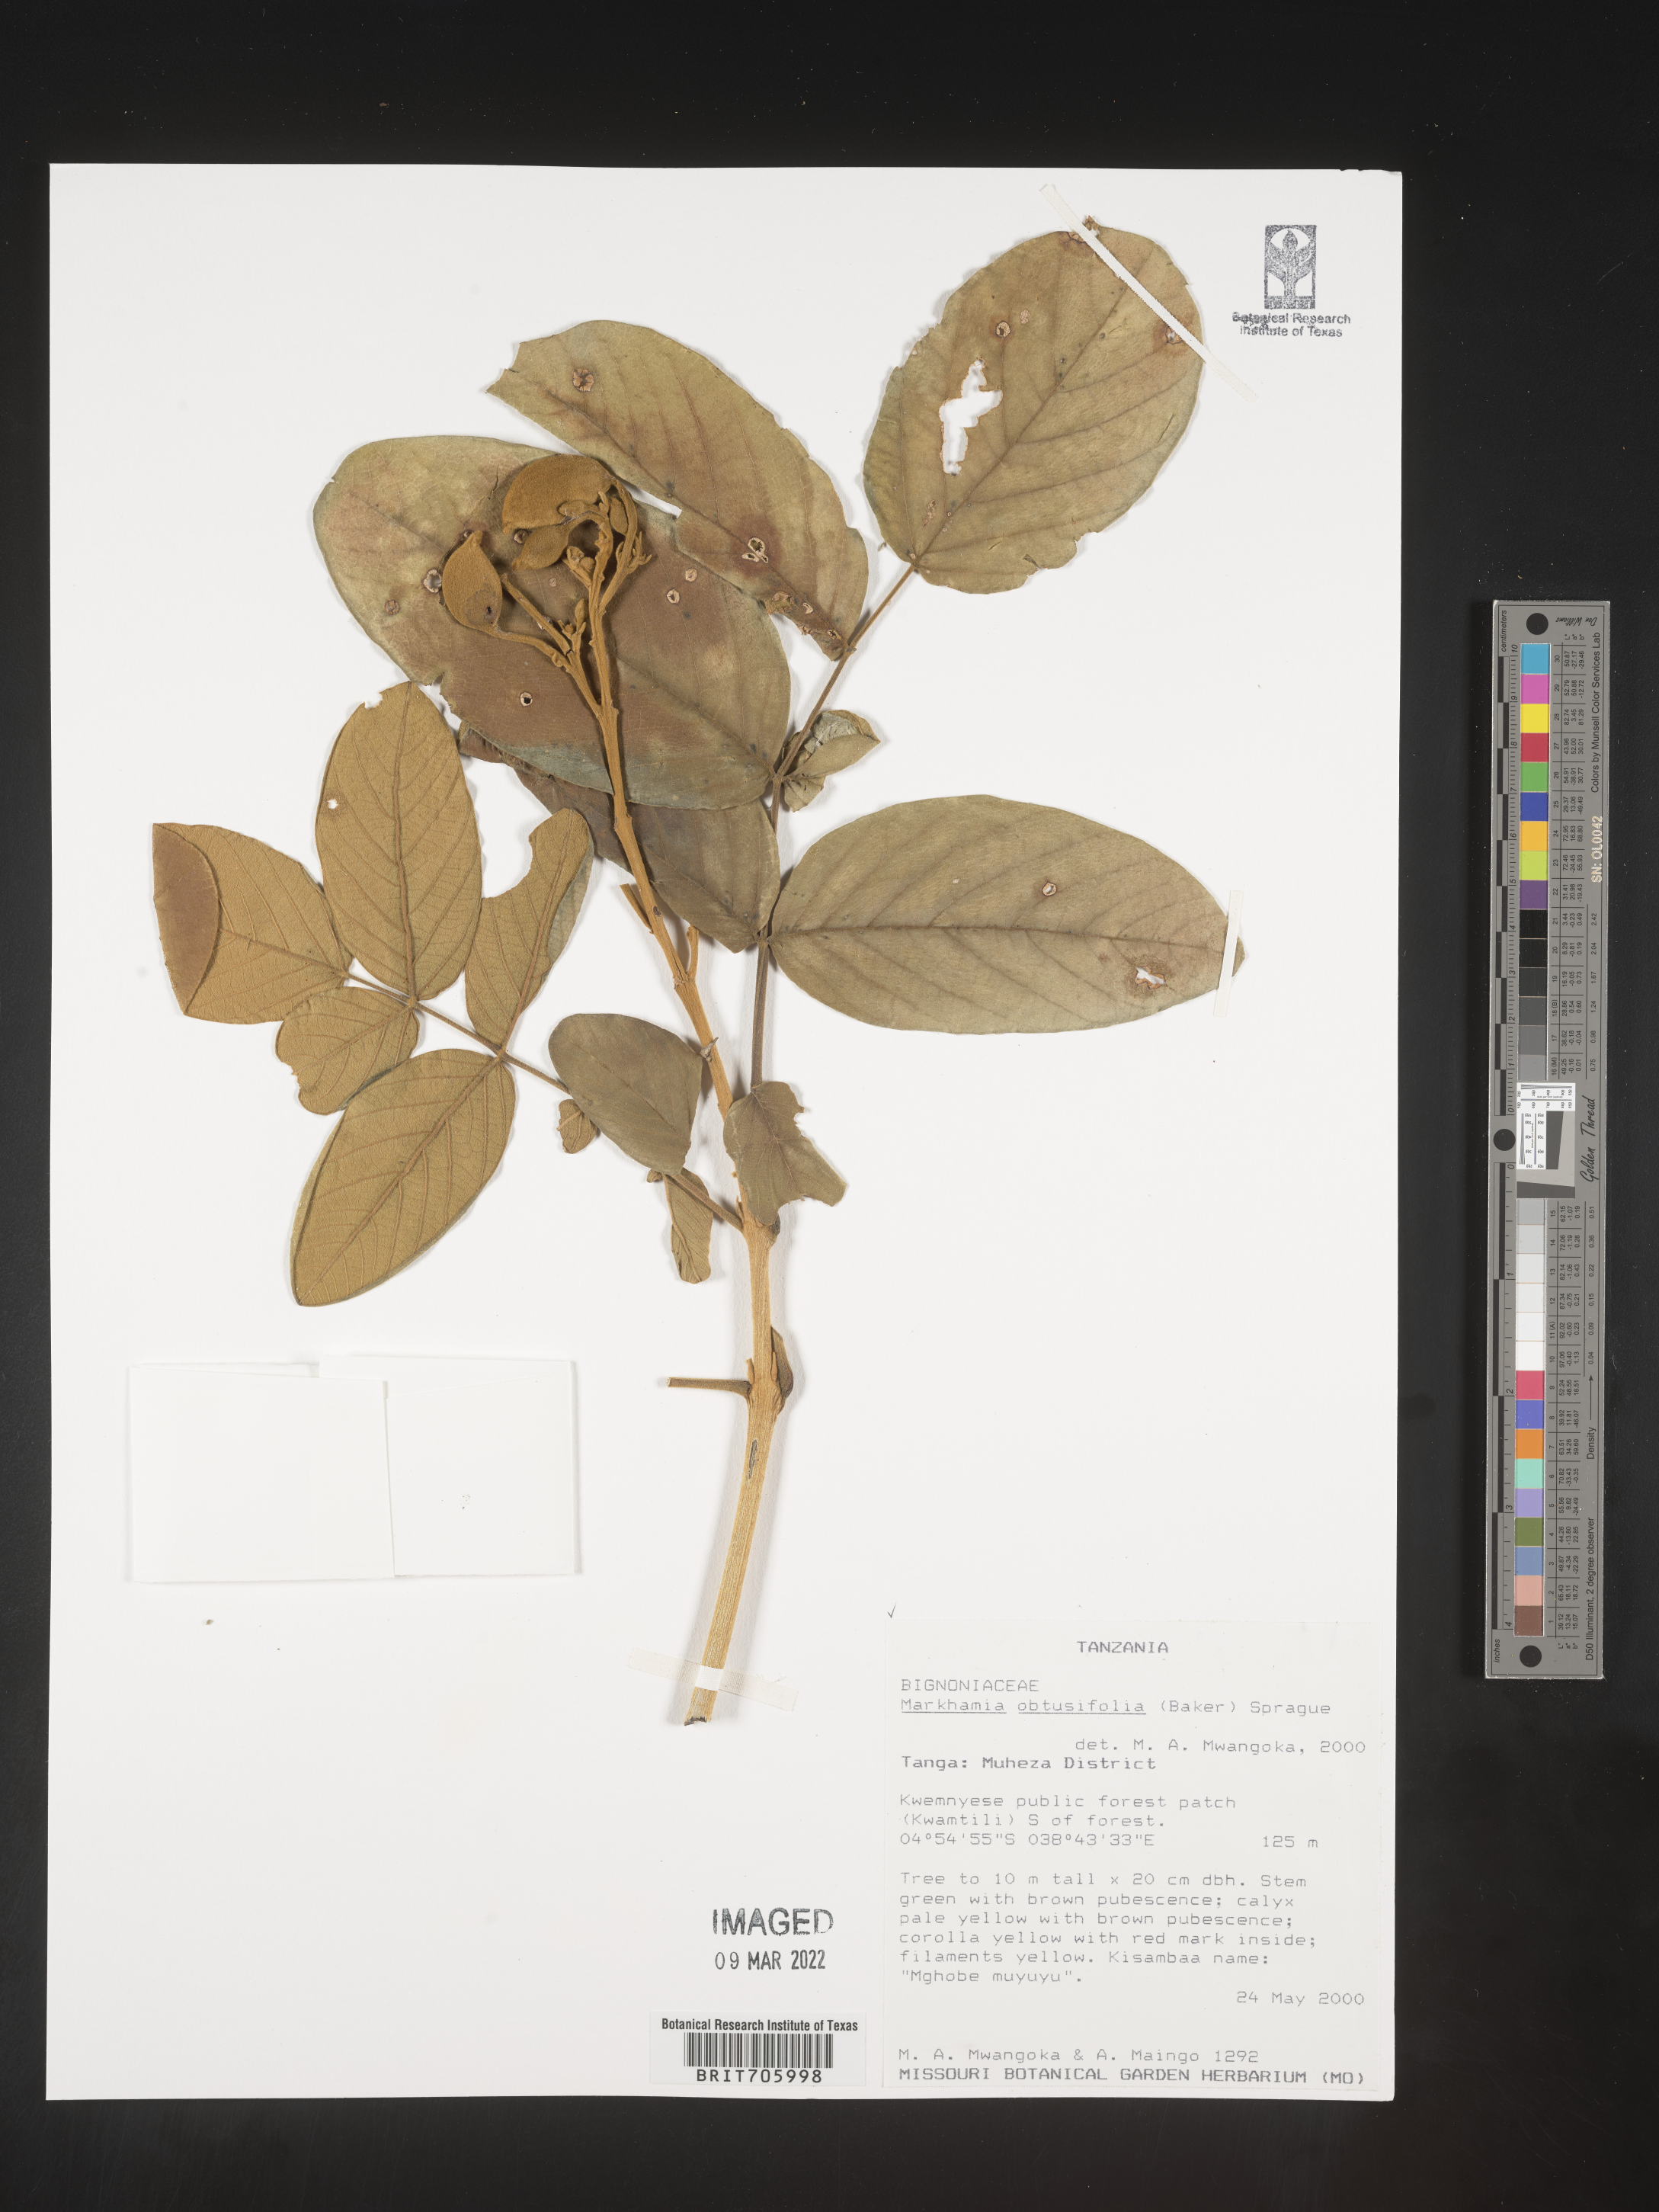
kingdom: Plantae
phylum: Tracheophyta
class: Magnoliopsida
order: Lamiales
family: Bignoniaceae
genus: Markhamia
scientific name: Markhamia
